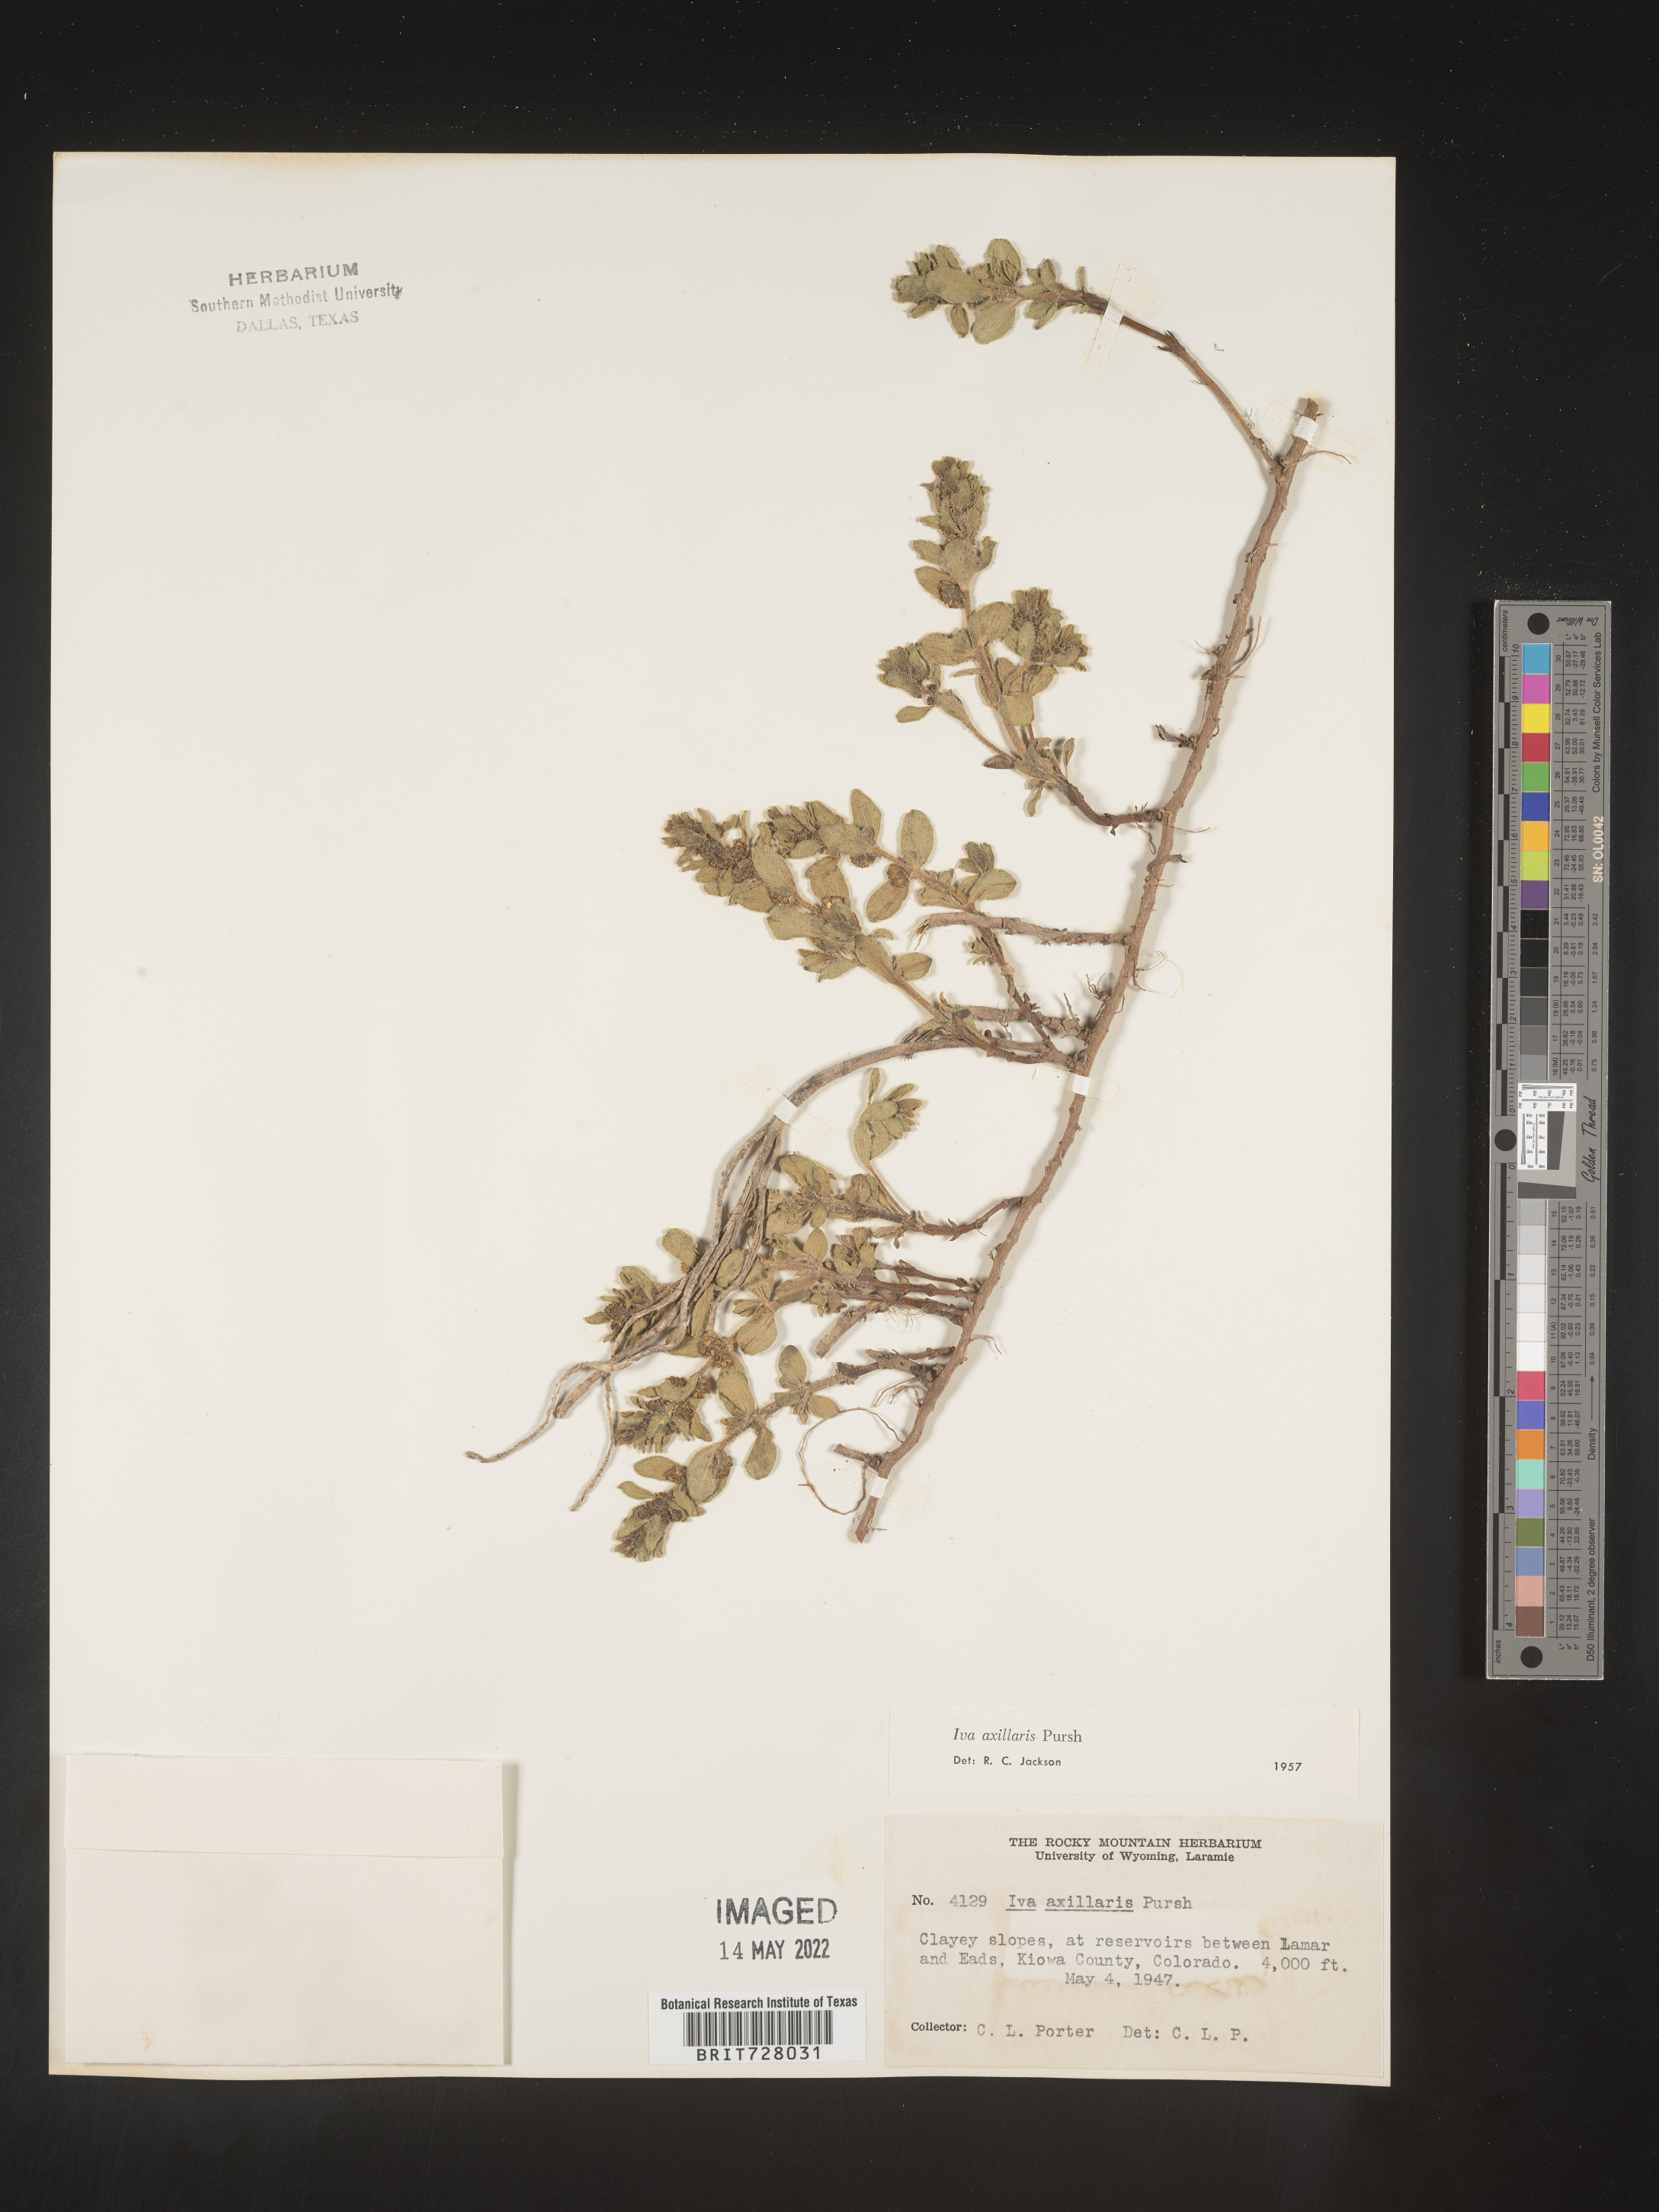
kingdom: Plantae
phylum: Tracheophyta
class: Magnoliopsida
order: Asterales
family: Asteraceae
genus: Iva
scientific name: Iva axillaris
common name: Poverty sumpweed
